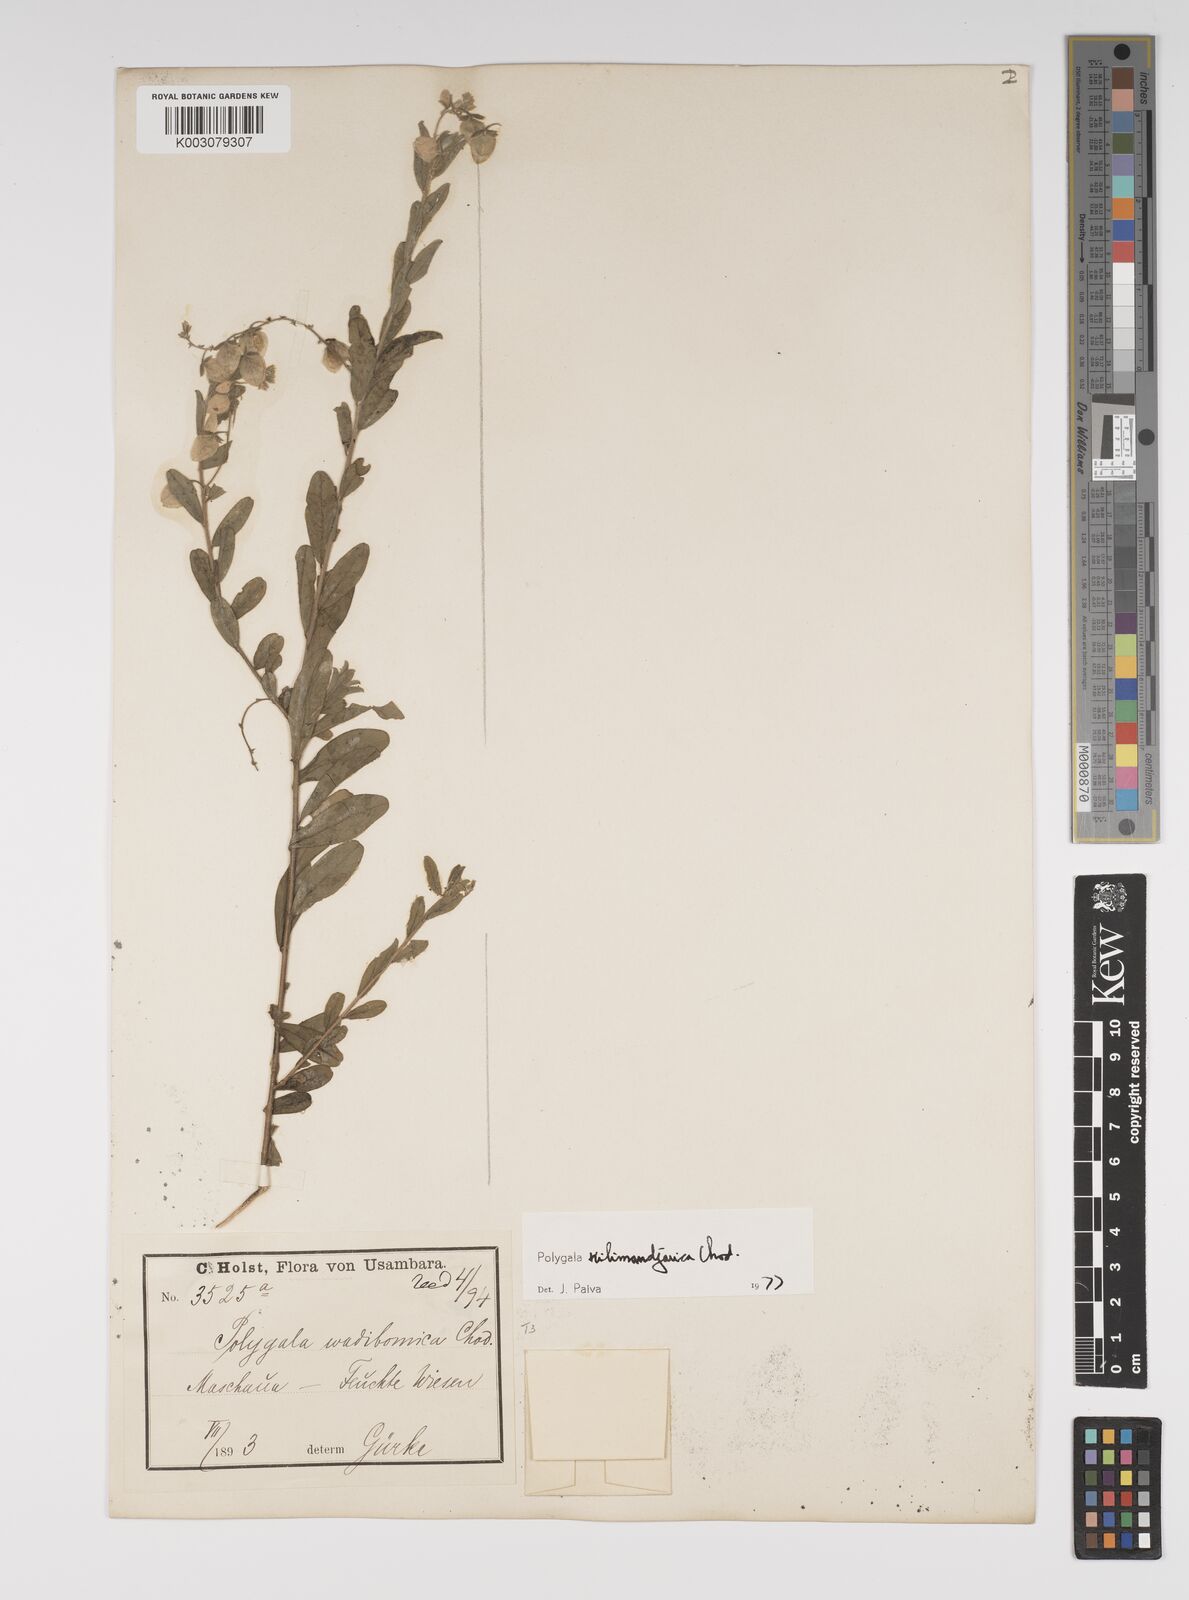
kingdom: Plantae
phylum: Tracheophyta
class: Magnoliopsida
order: Fabales
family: Polygalaceae
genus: Polygala
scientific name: Polygala kilimandjarica
